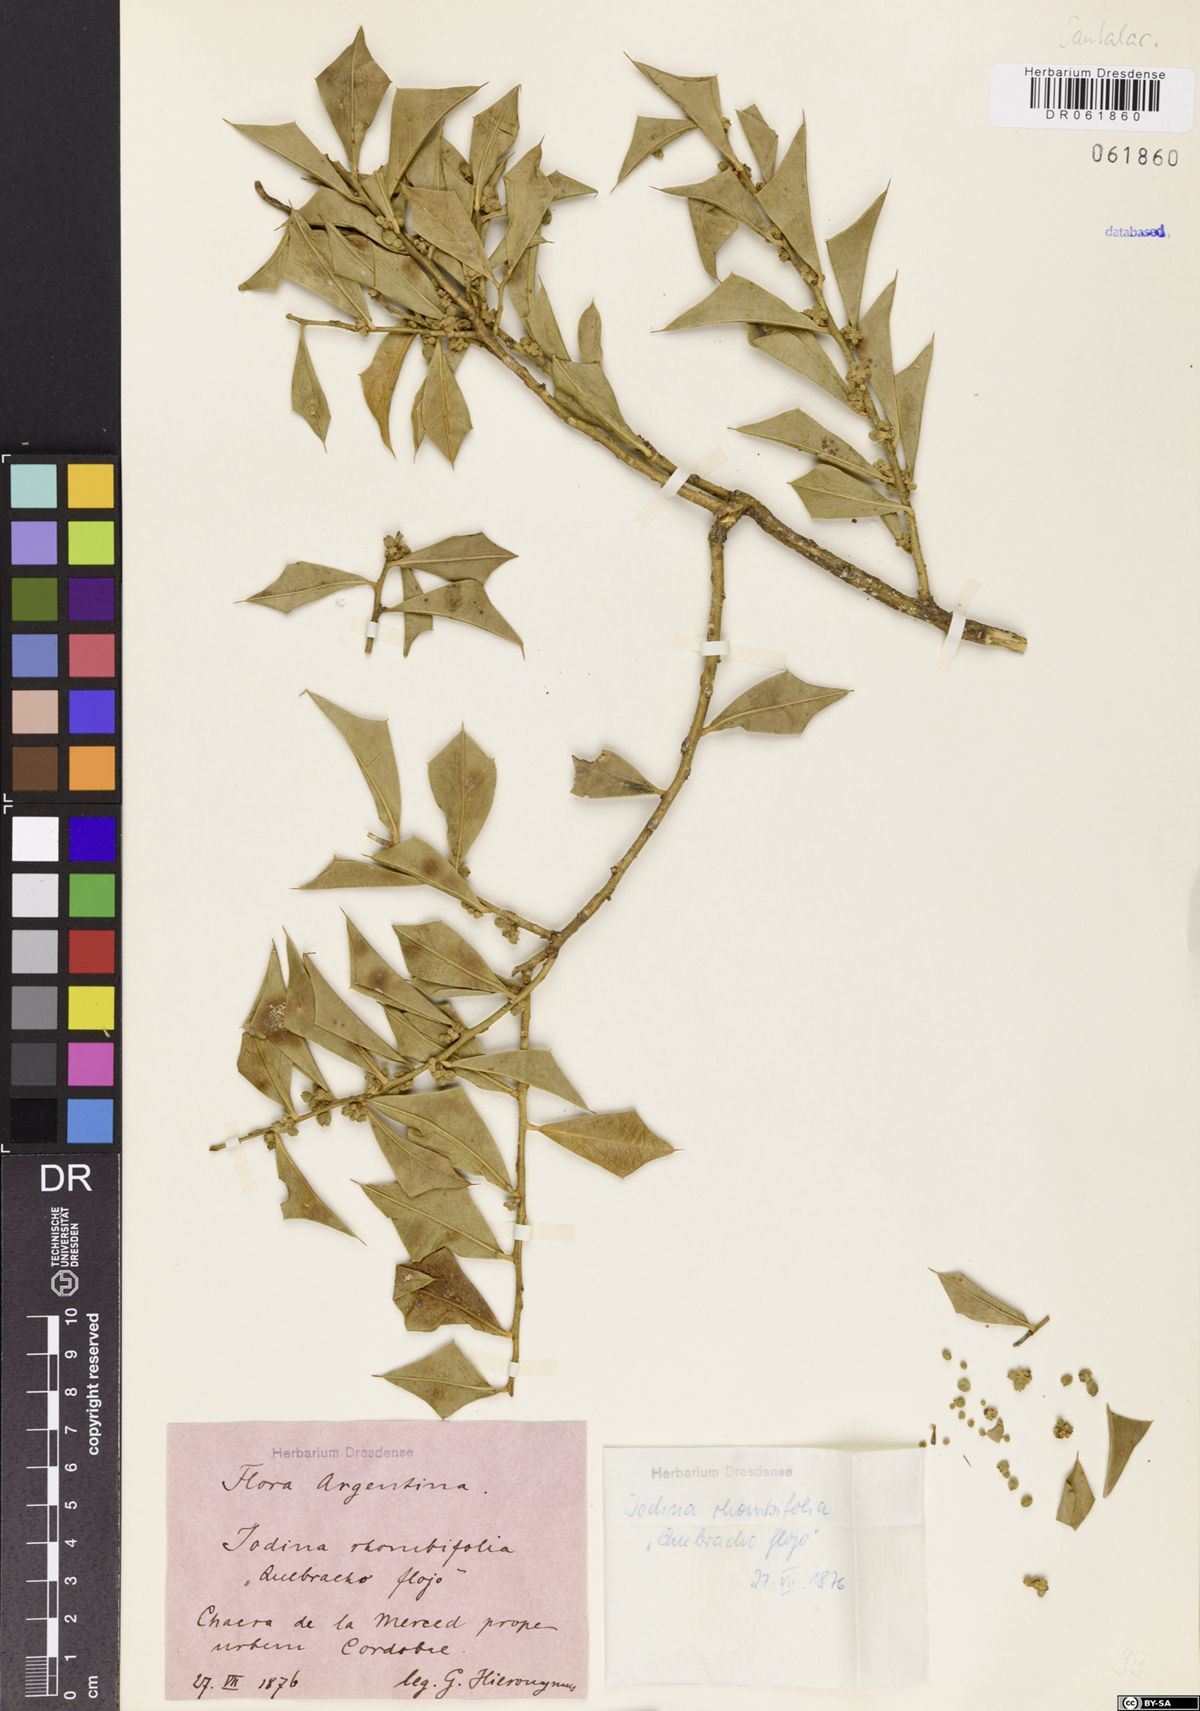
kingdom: Plantae
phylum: Tracheophyta
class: Magnoliopsida
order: Santalales
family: Cervantesiaceae
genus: Jodina
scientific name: Jodina rhombifolia
